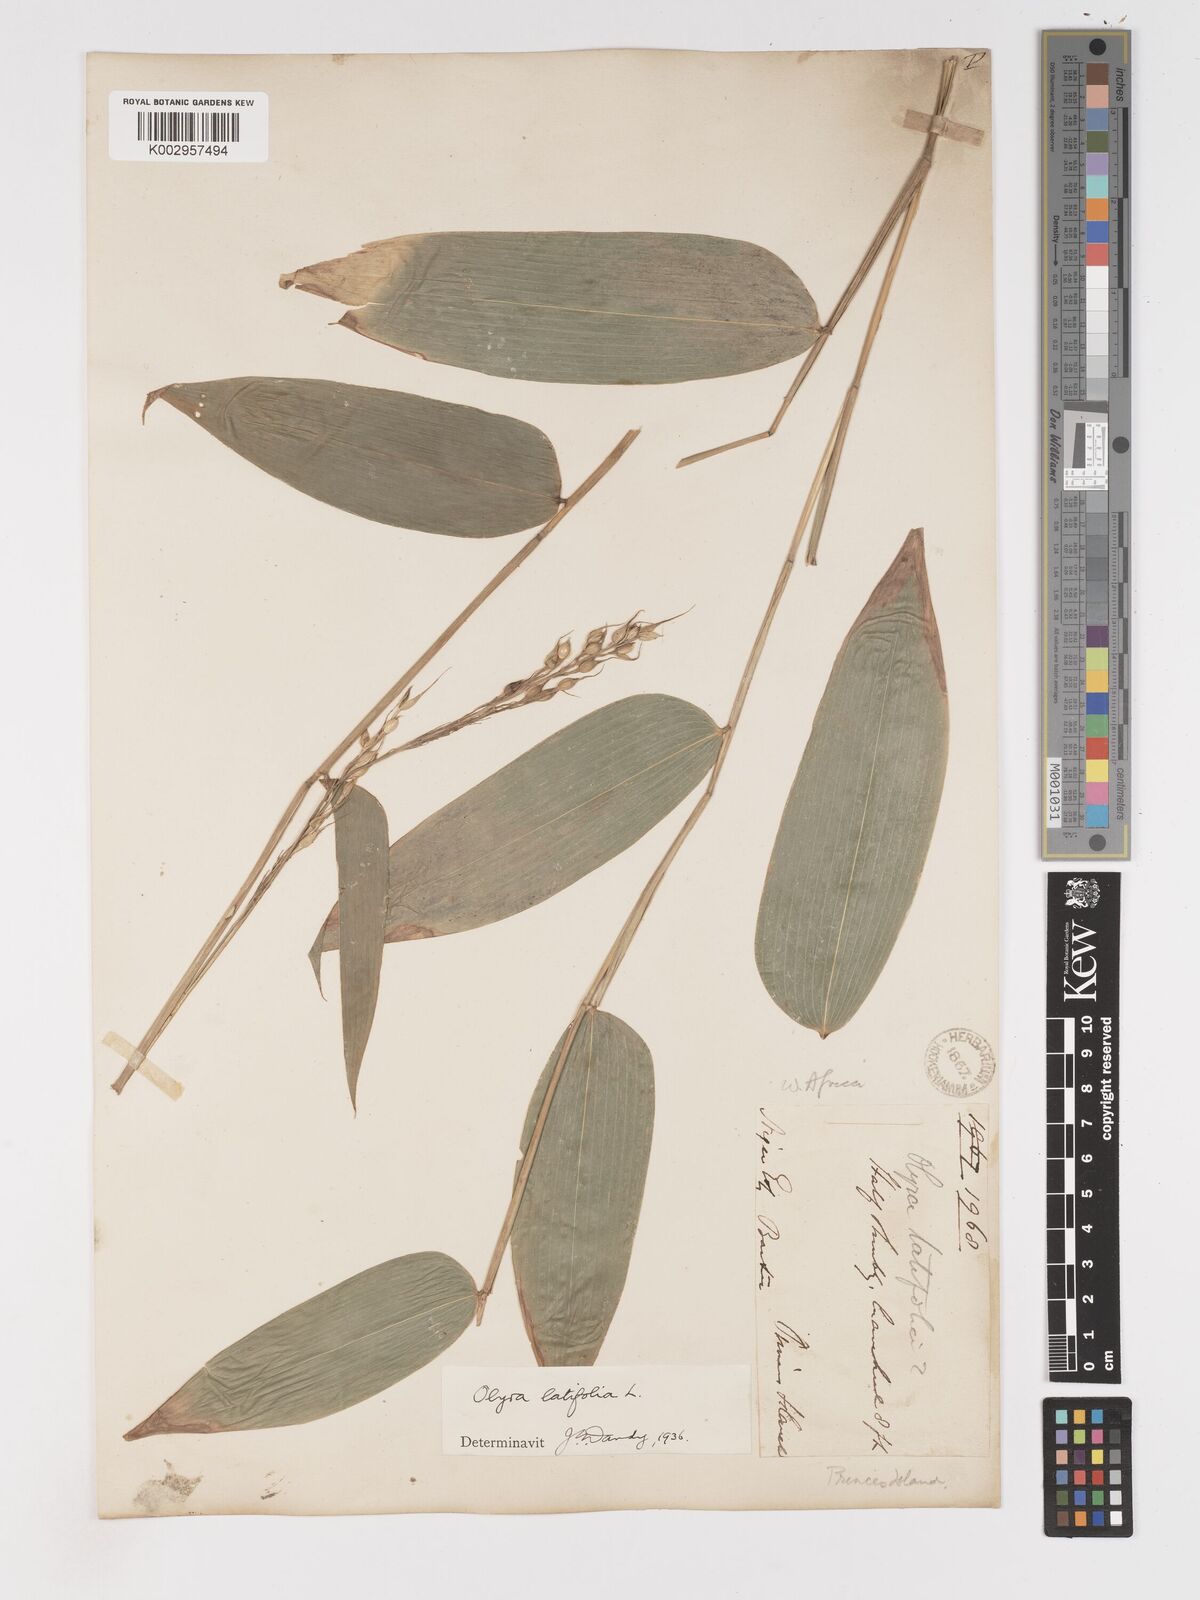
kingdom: Plantae
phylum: Tracheophyta
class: Liliopsida
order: Poales
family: Poaceae
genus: Olyra
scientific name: Olyra latifolia
